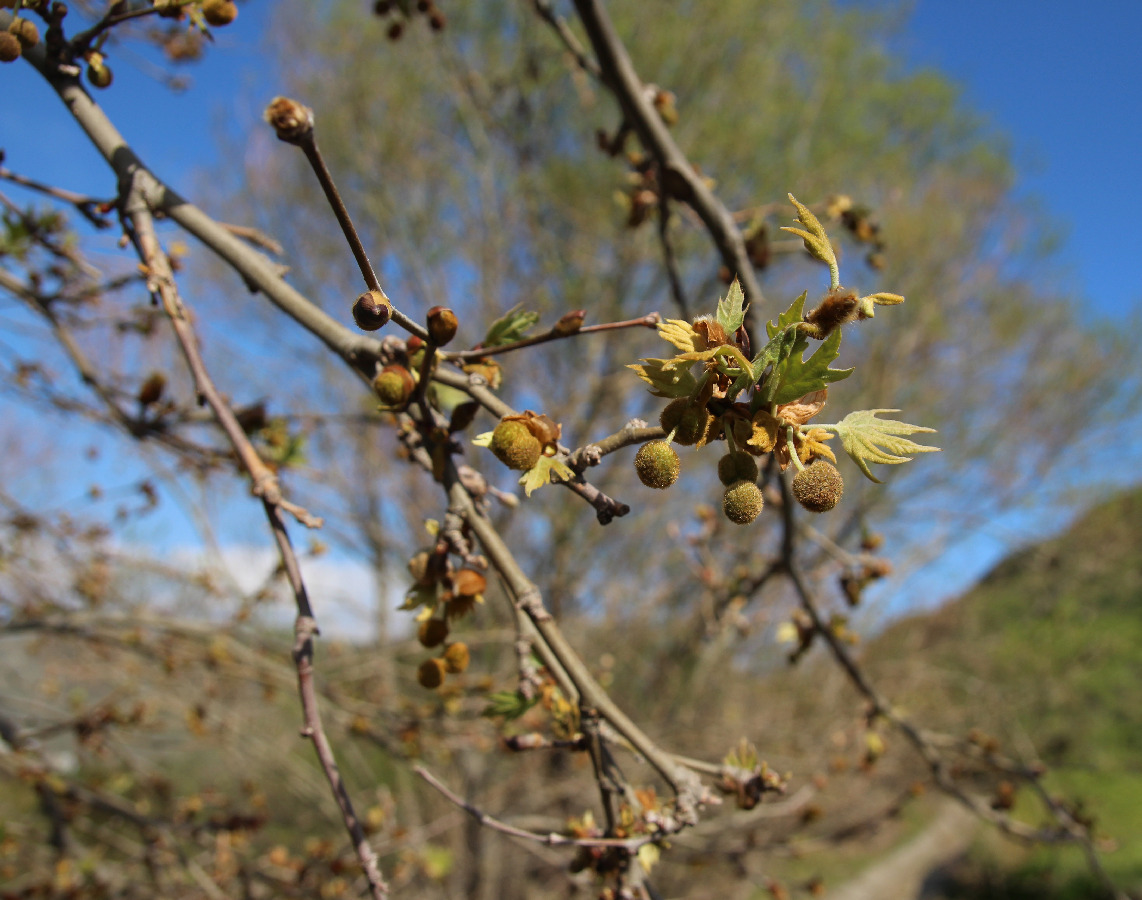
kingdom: Plantae
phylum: Tracheophyta
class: Magnoliopsida
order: Proteales
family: Platanaceae
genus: Platanus
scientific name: Platanus orientalis
